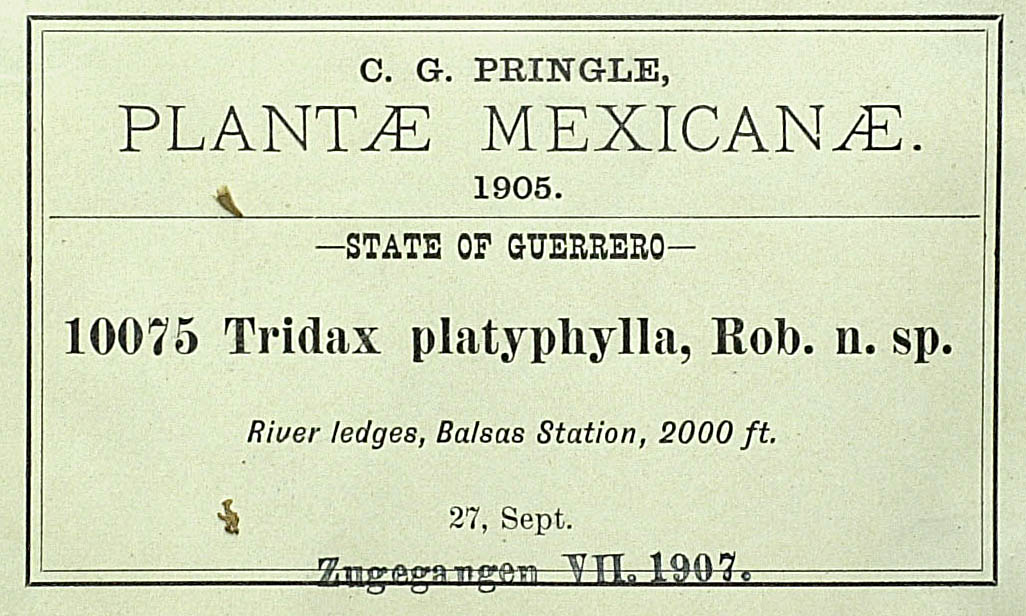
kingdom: Plantae
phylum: Tracheophyta
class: Magnoliopsida
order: Asterales
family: Asteraceae
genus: Tridax
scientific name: Tridax platyphylla
